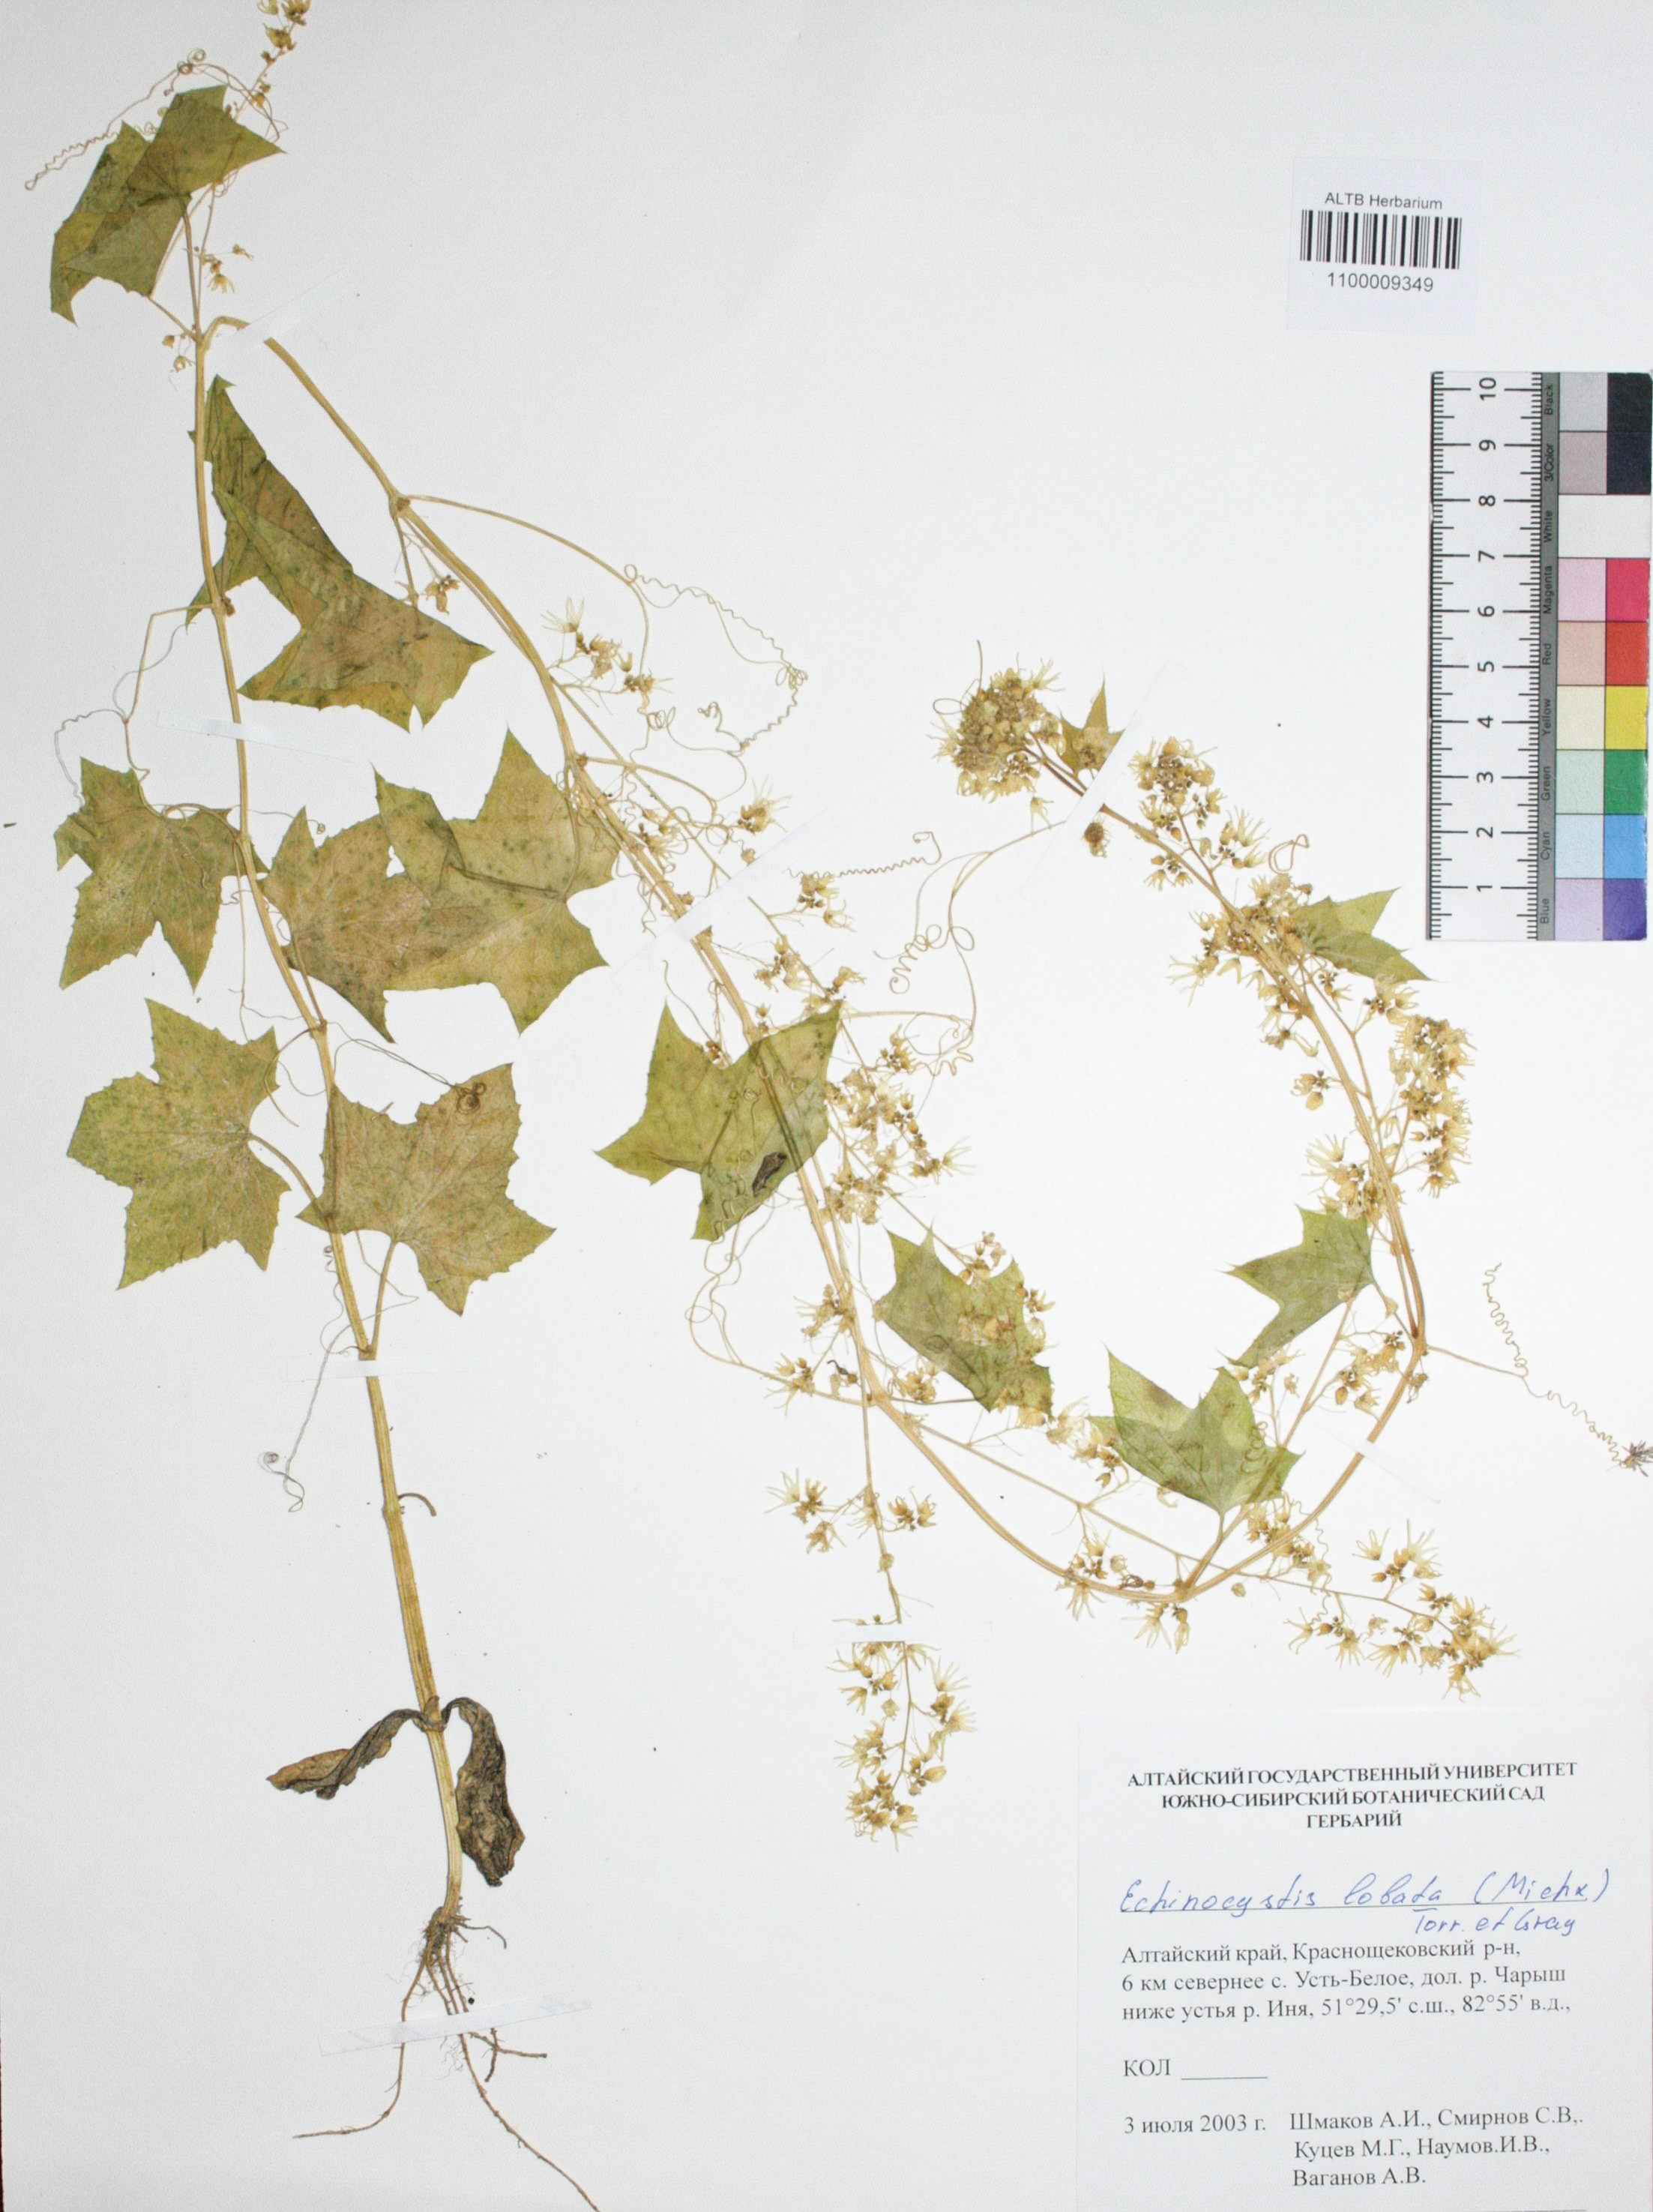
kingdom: Plantae
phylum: Tracheophyta
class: Magnoliopsida
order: Cucurbitales
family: Cucurbitaceae
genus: Echinocystis
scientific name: Echinocystis lobata
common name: Wild cucumber
